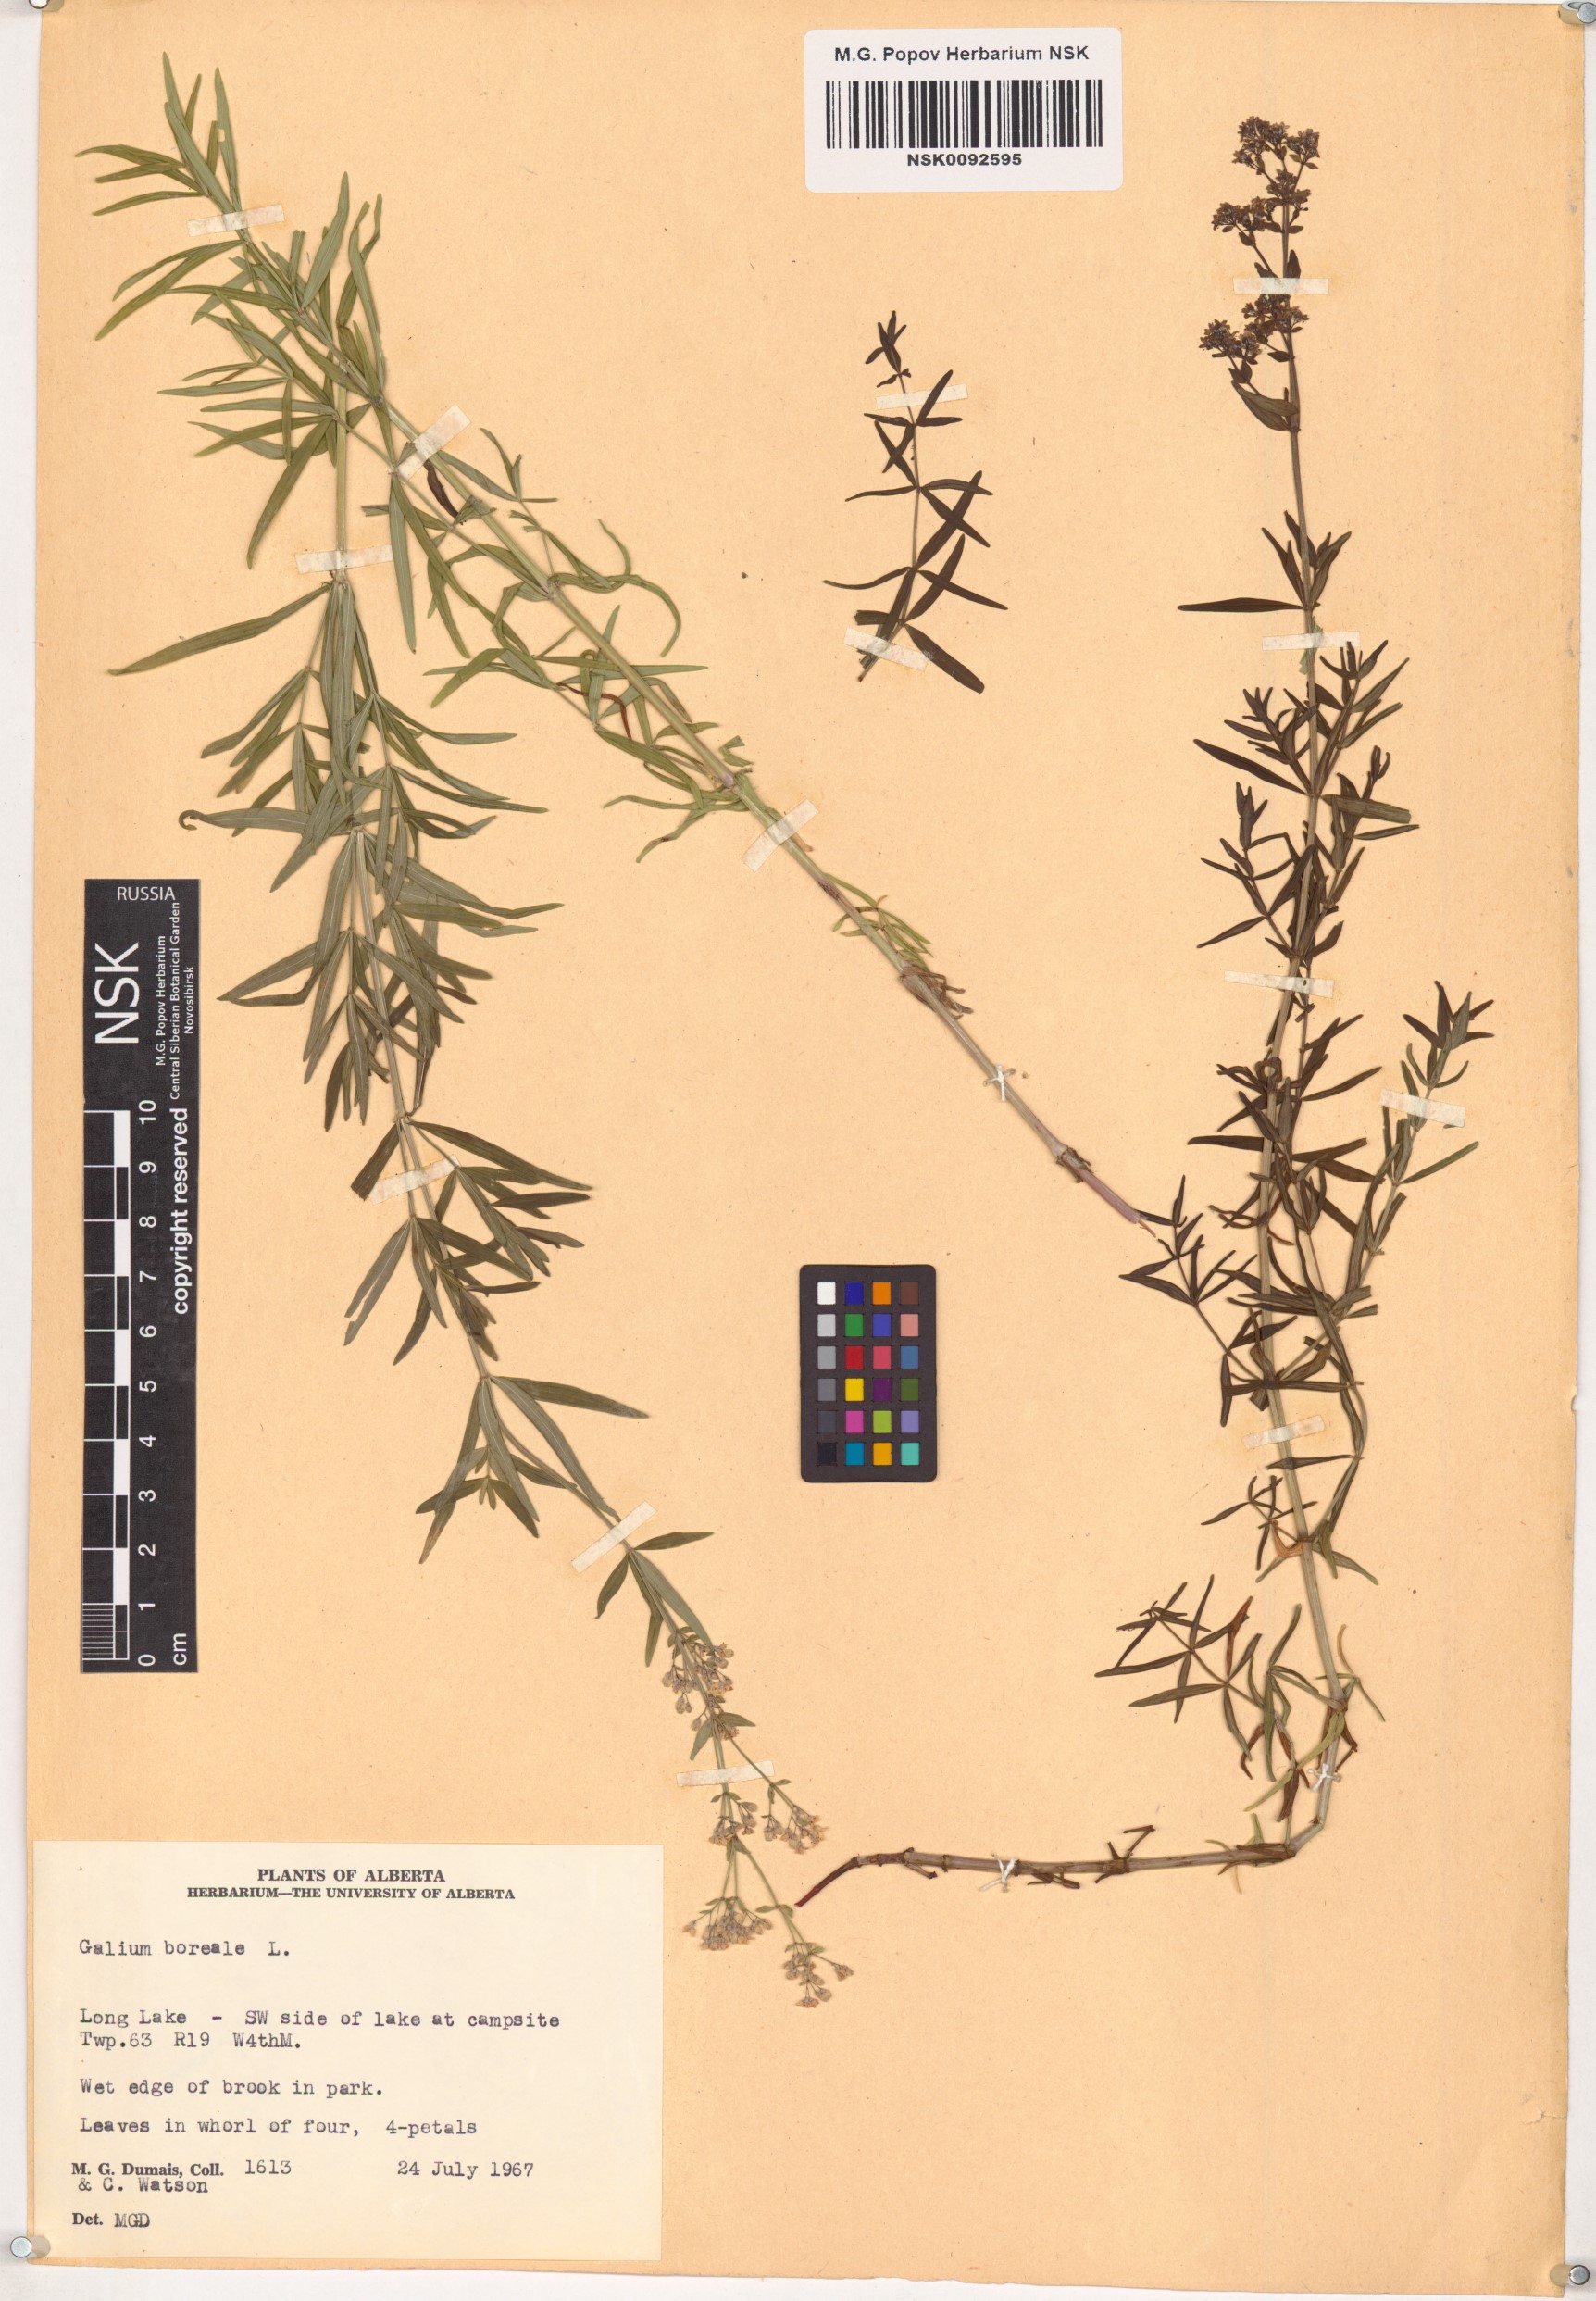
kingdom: Plantae
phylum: Tracheophyta
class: Magnoliopsida
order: Gentianales
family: Rubiaceae
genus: Galium
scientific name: Galium boreale
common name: Northern bedstraw
